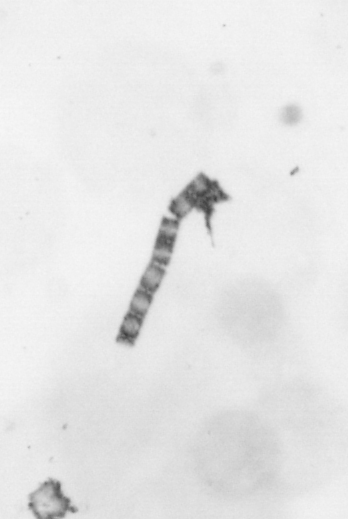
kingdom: Chromista
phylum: Ochrophyta
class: Bacillariophyceae
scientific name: Bacillariophyceae
